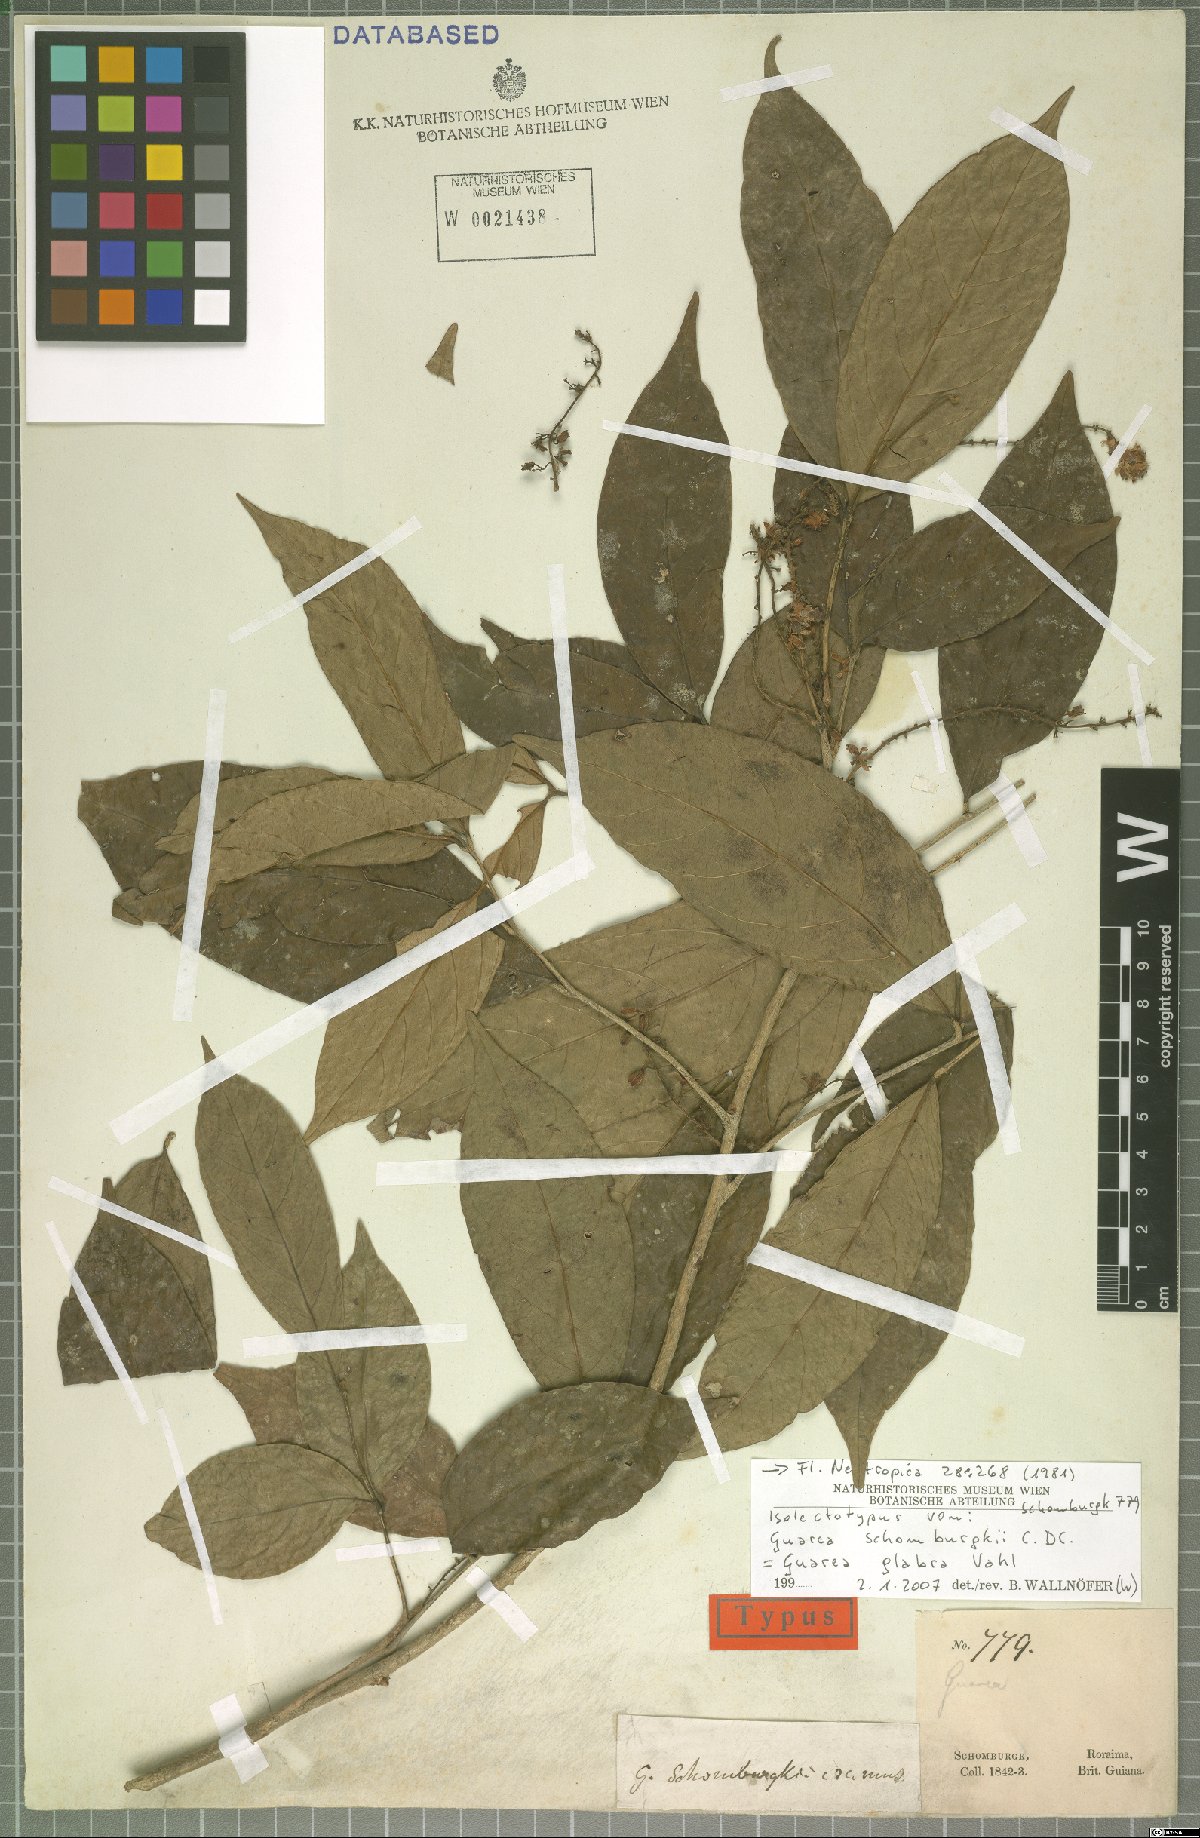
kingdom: Plantae
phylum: Tracheophyta
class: Magnoliopsida
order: Sapindales
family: Meliaceae
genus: Guarea
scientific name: Guarea glabra
